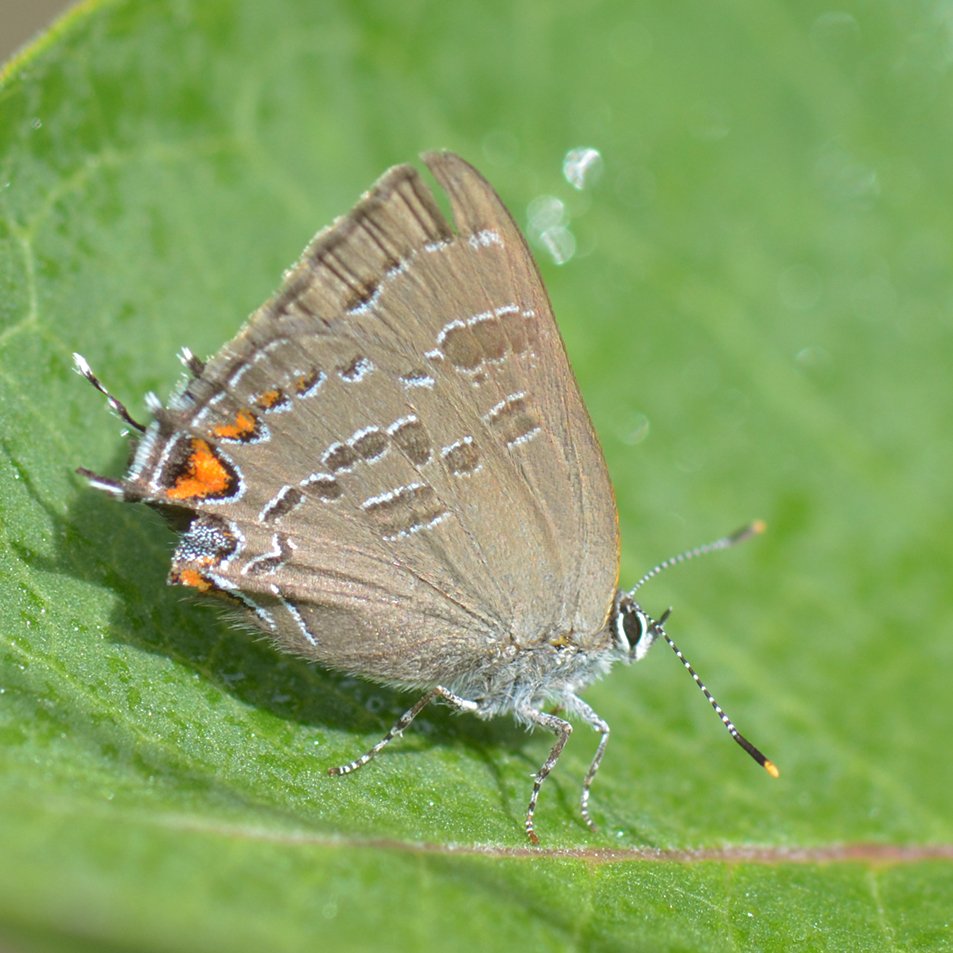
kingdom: Animalia
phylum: Arthropoda
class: Insecta
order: Lepidoptera
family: Lycaenidae
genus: Satyrium
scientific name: Satyrium calanus
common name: Banded Hairstreak
